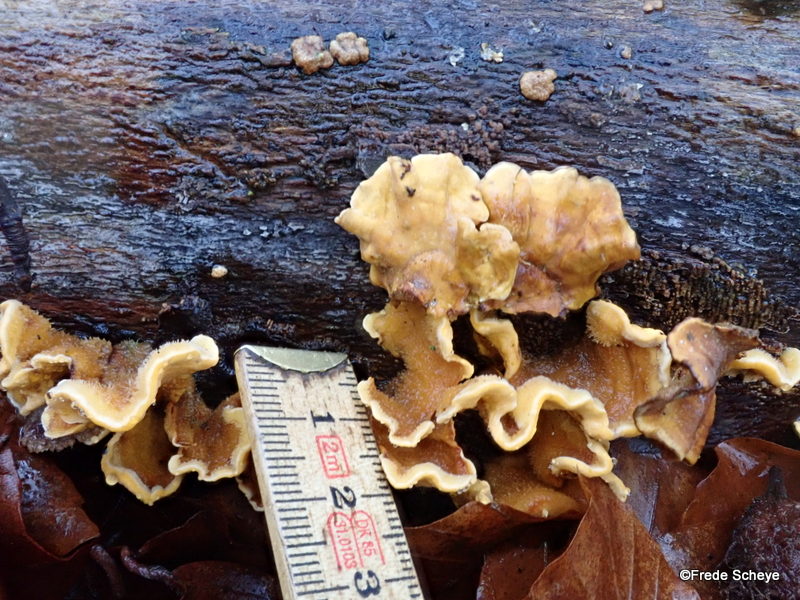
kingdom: Fungi
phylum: Basidiomycota
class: Agaricomycetes
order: Russulales
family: Stereaceae
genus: Stereum
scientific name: Stereum hirsutum
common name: håret lædersvamp
